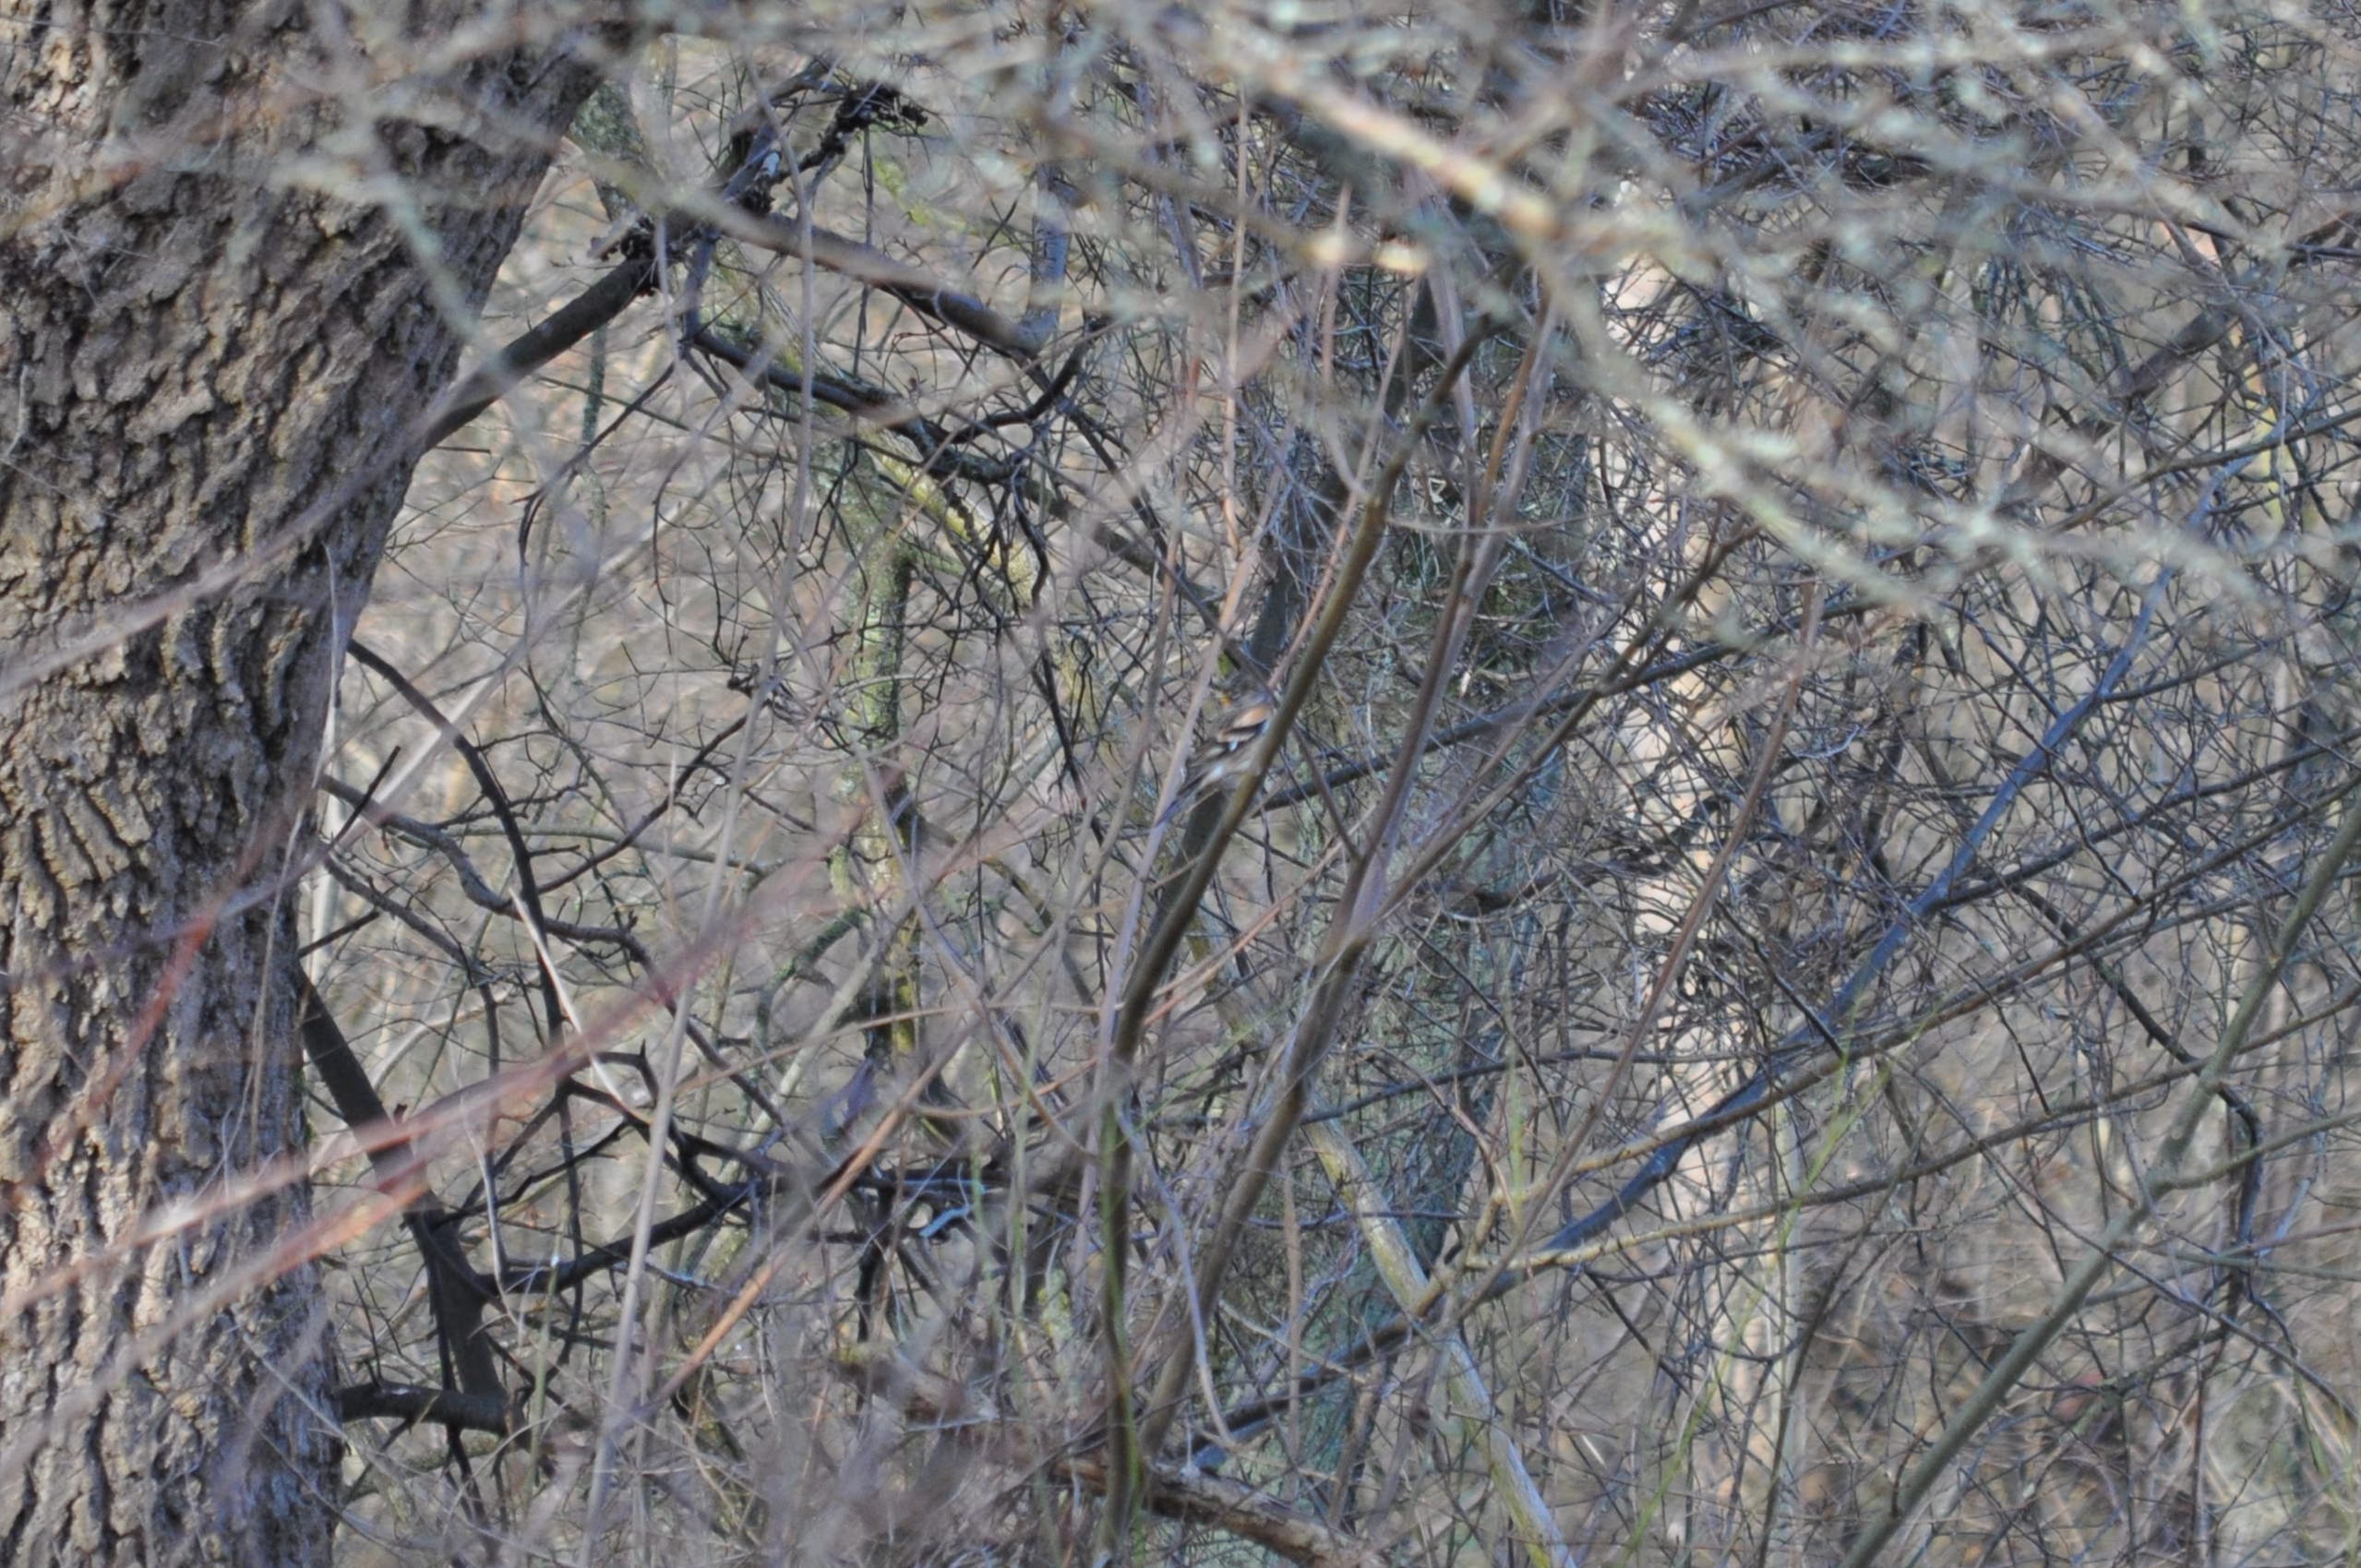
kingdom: Animalia
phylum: Chordata
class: Aves
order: Passeriformes
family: Fringillidae
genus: Fringilla
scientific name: Fringilla montifringilla
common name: Kvækerfinke
